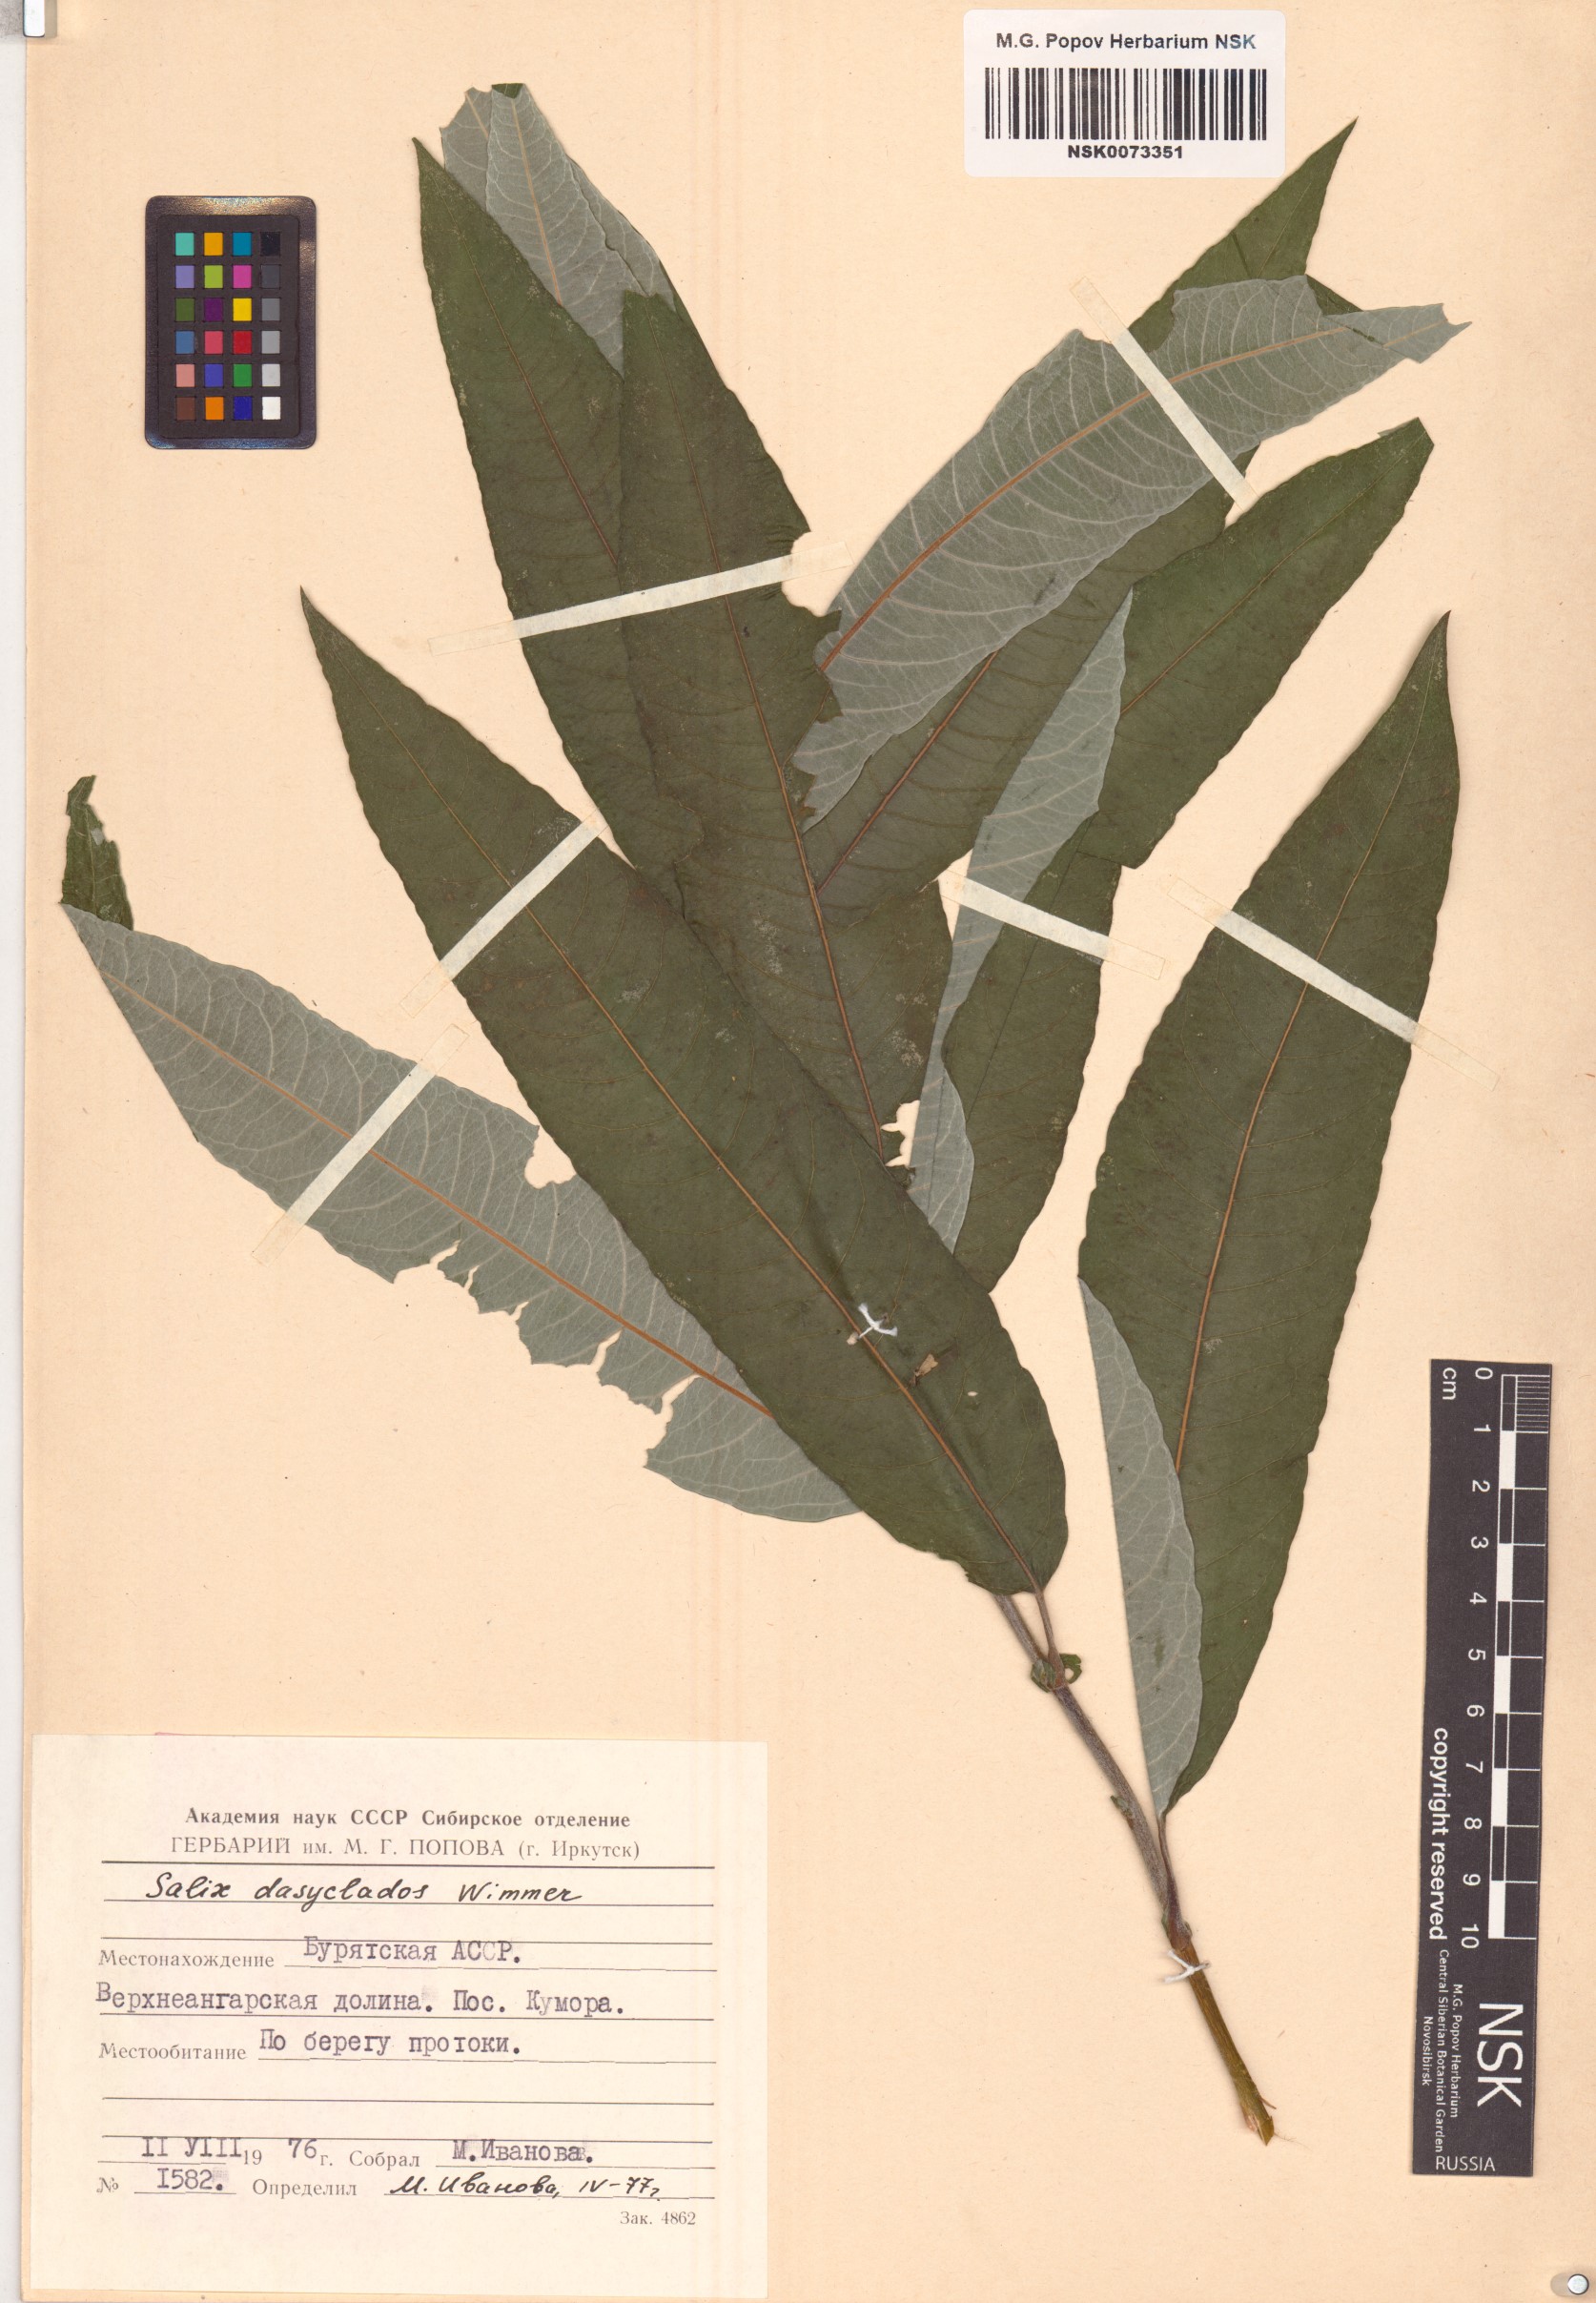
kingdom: Plantae
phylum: Tracheophyta
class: Magnoliopsida
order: Malpighiales
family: Salicaceae
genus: Salix
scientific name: Salix gmelinii
